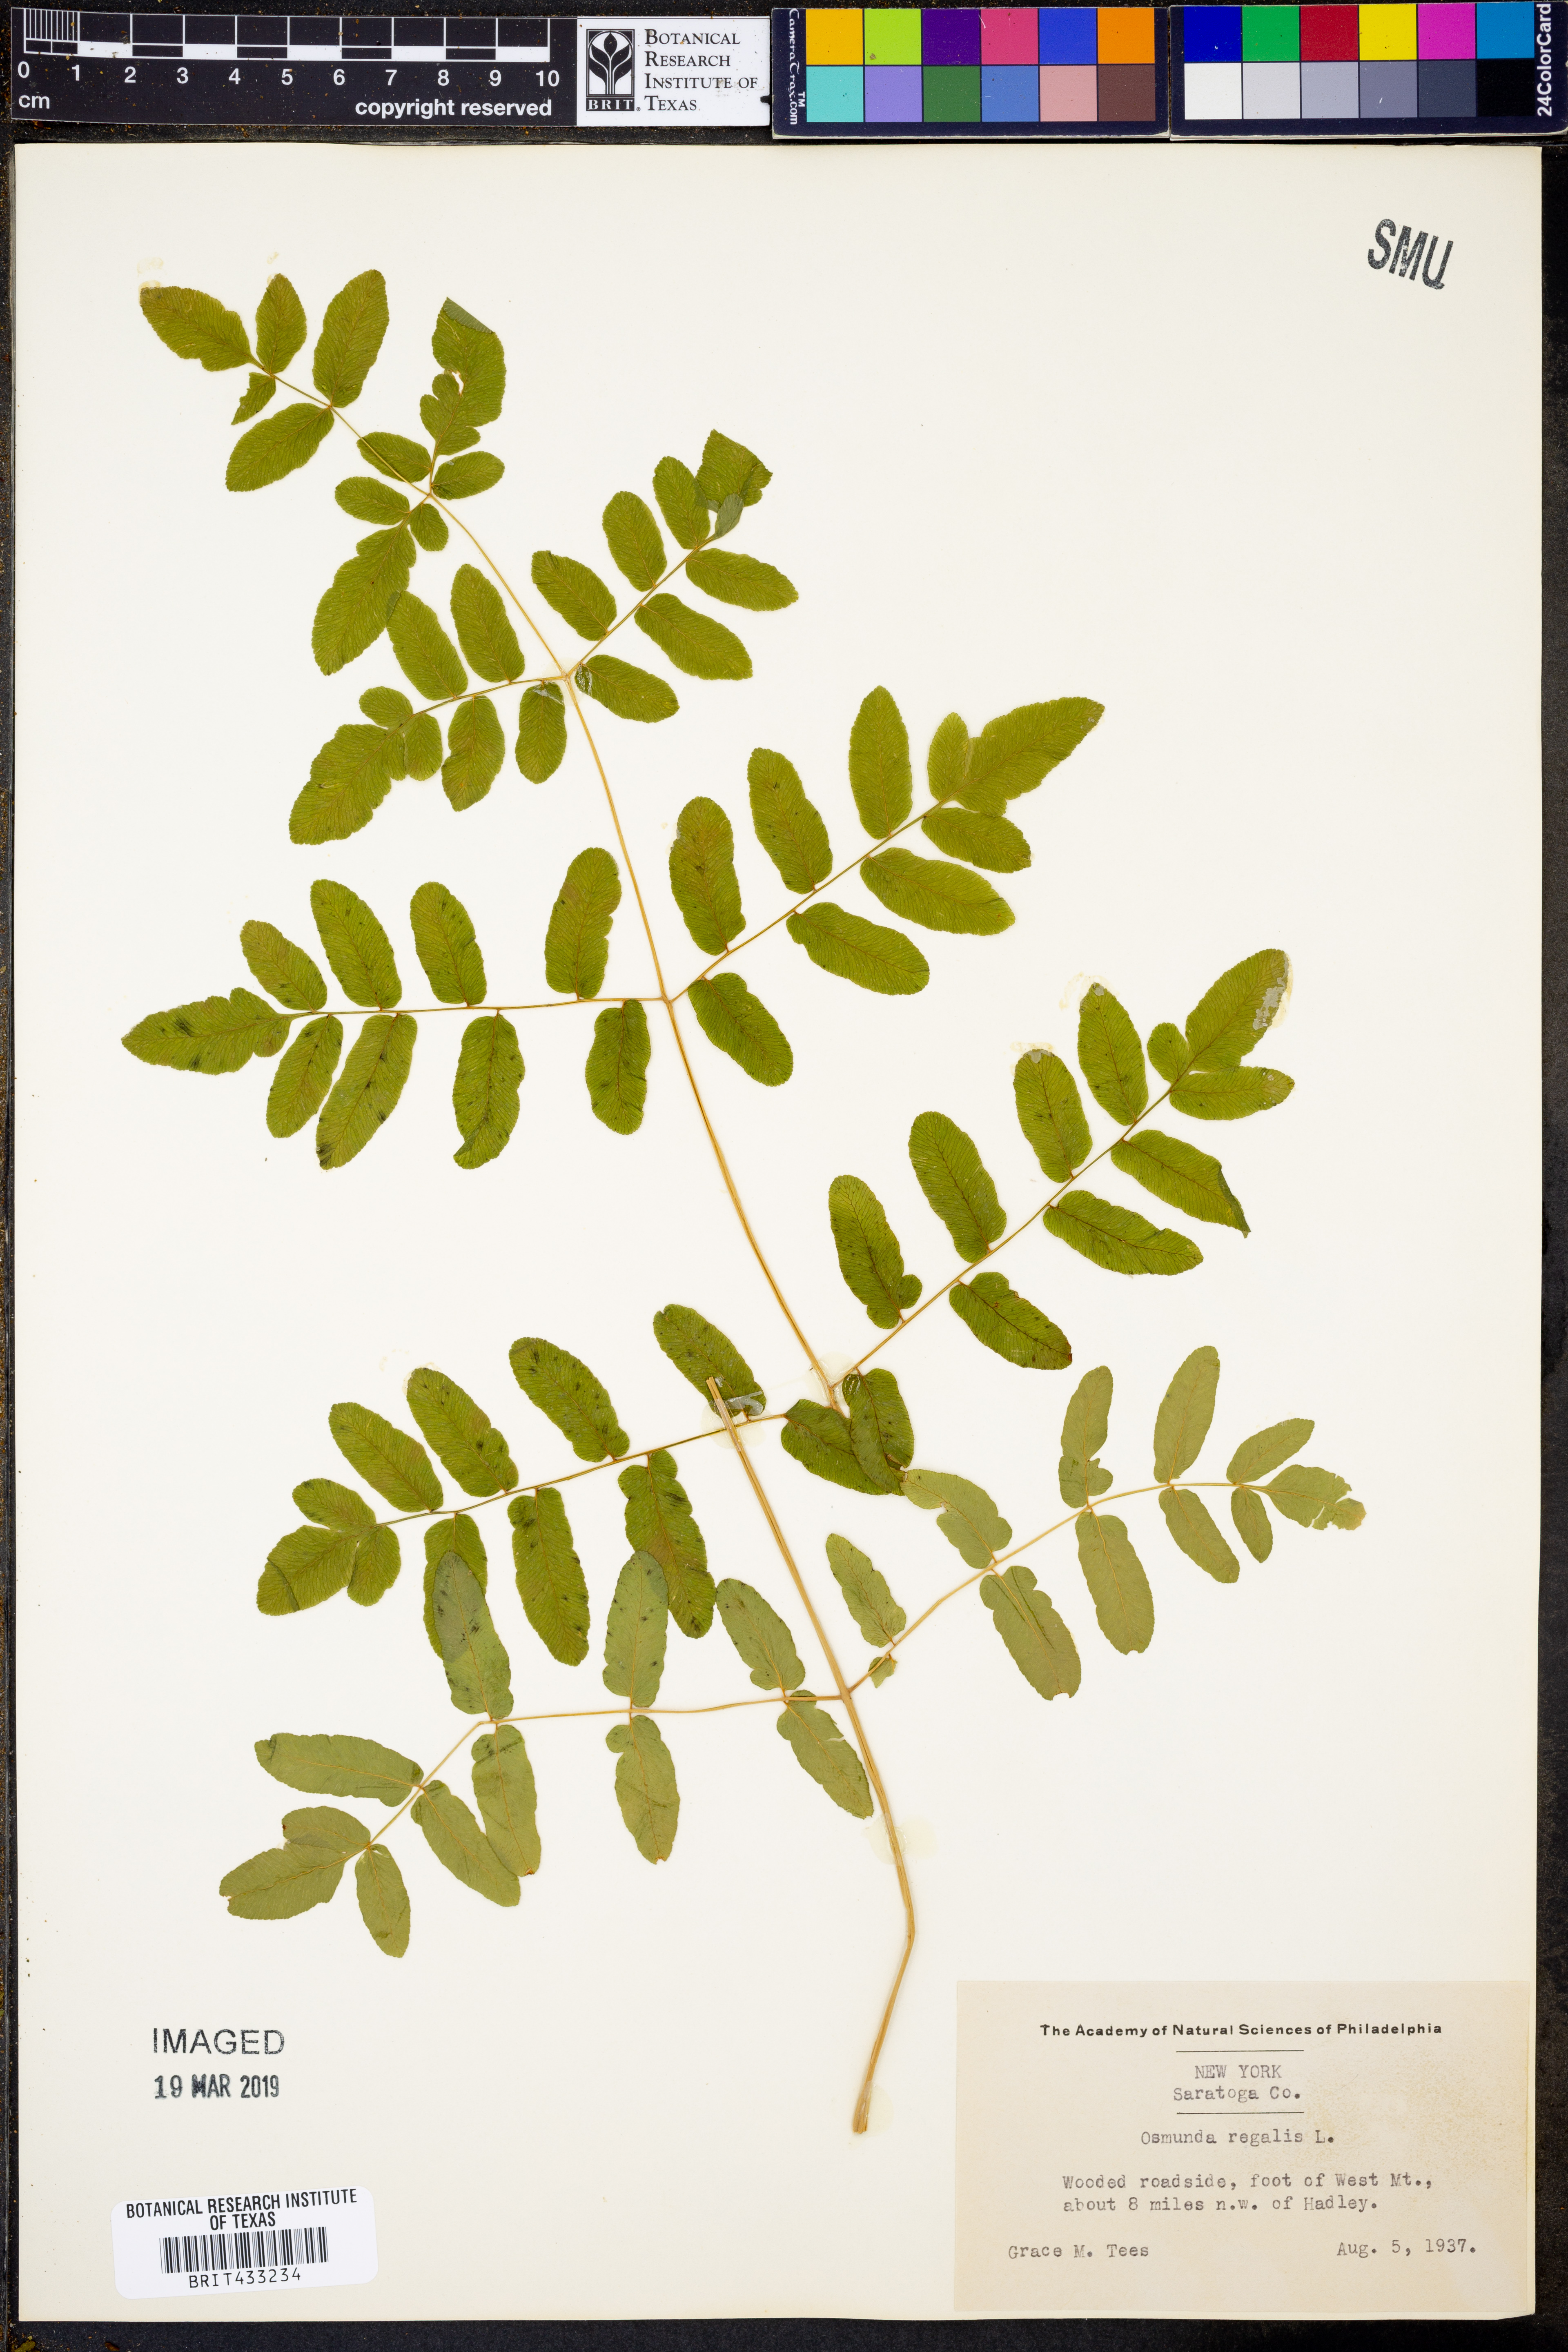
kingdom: Plantae
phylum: Tracheophyta
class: Polypodiopsida
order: Osmundales
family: Osmundaceae
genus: Osmunda
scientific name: Osmunda regalis
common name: Royal fern
